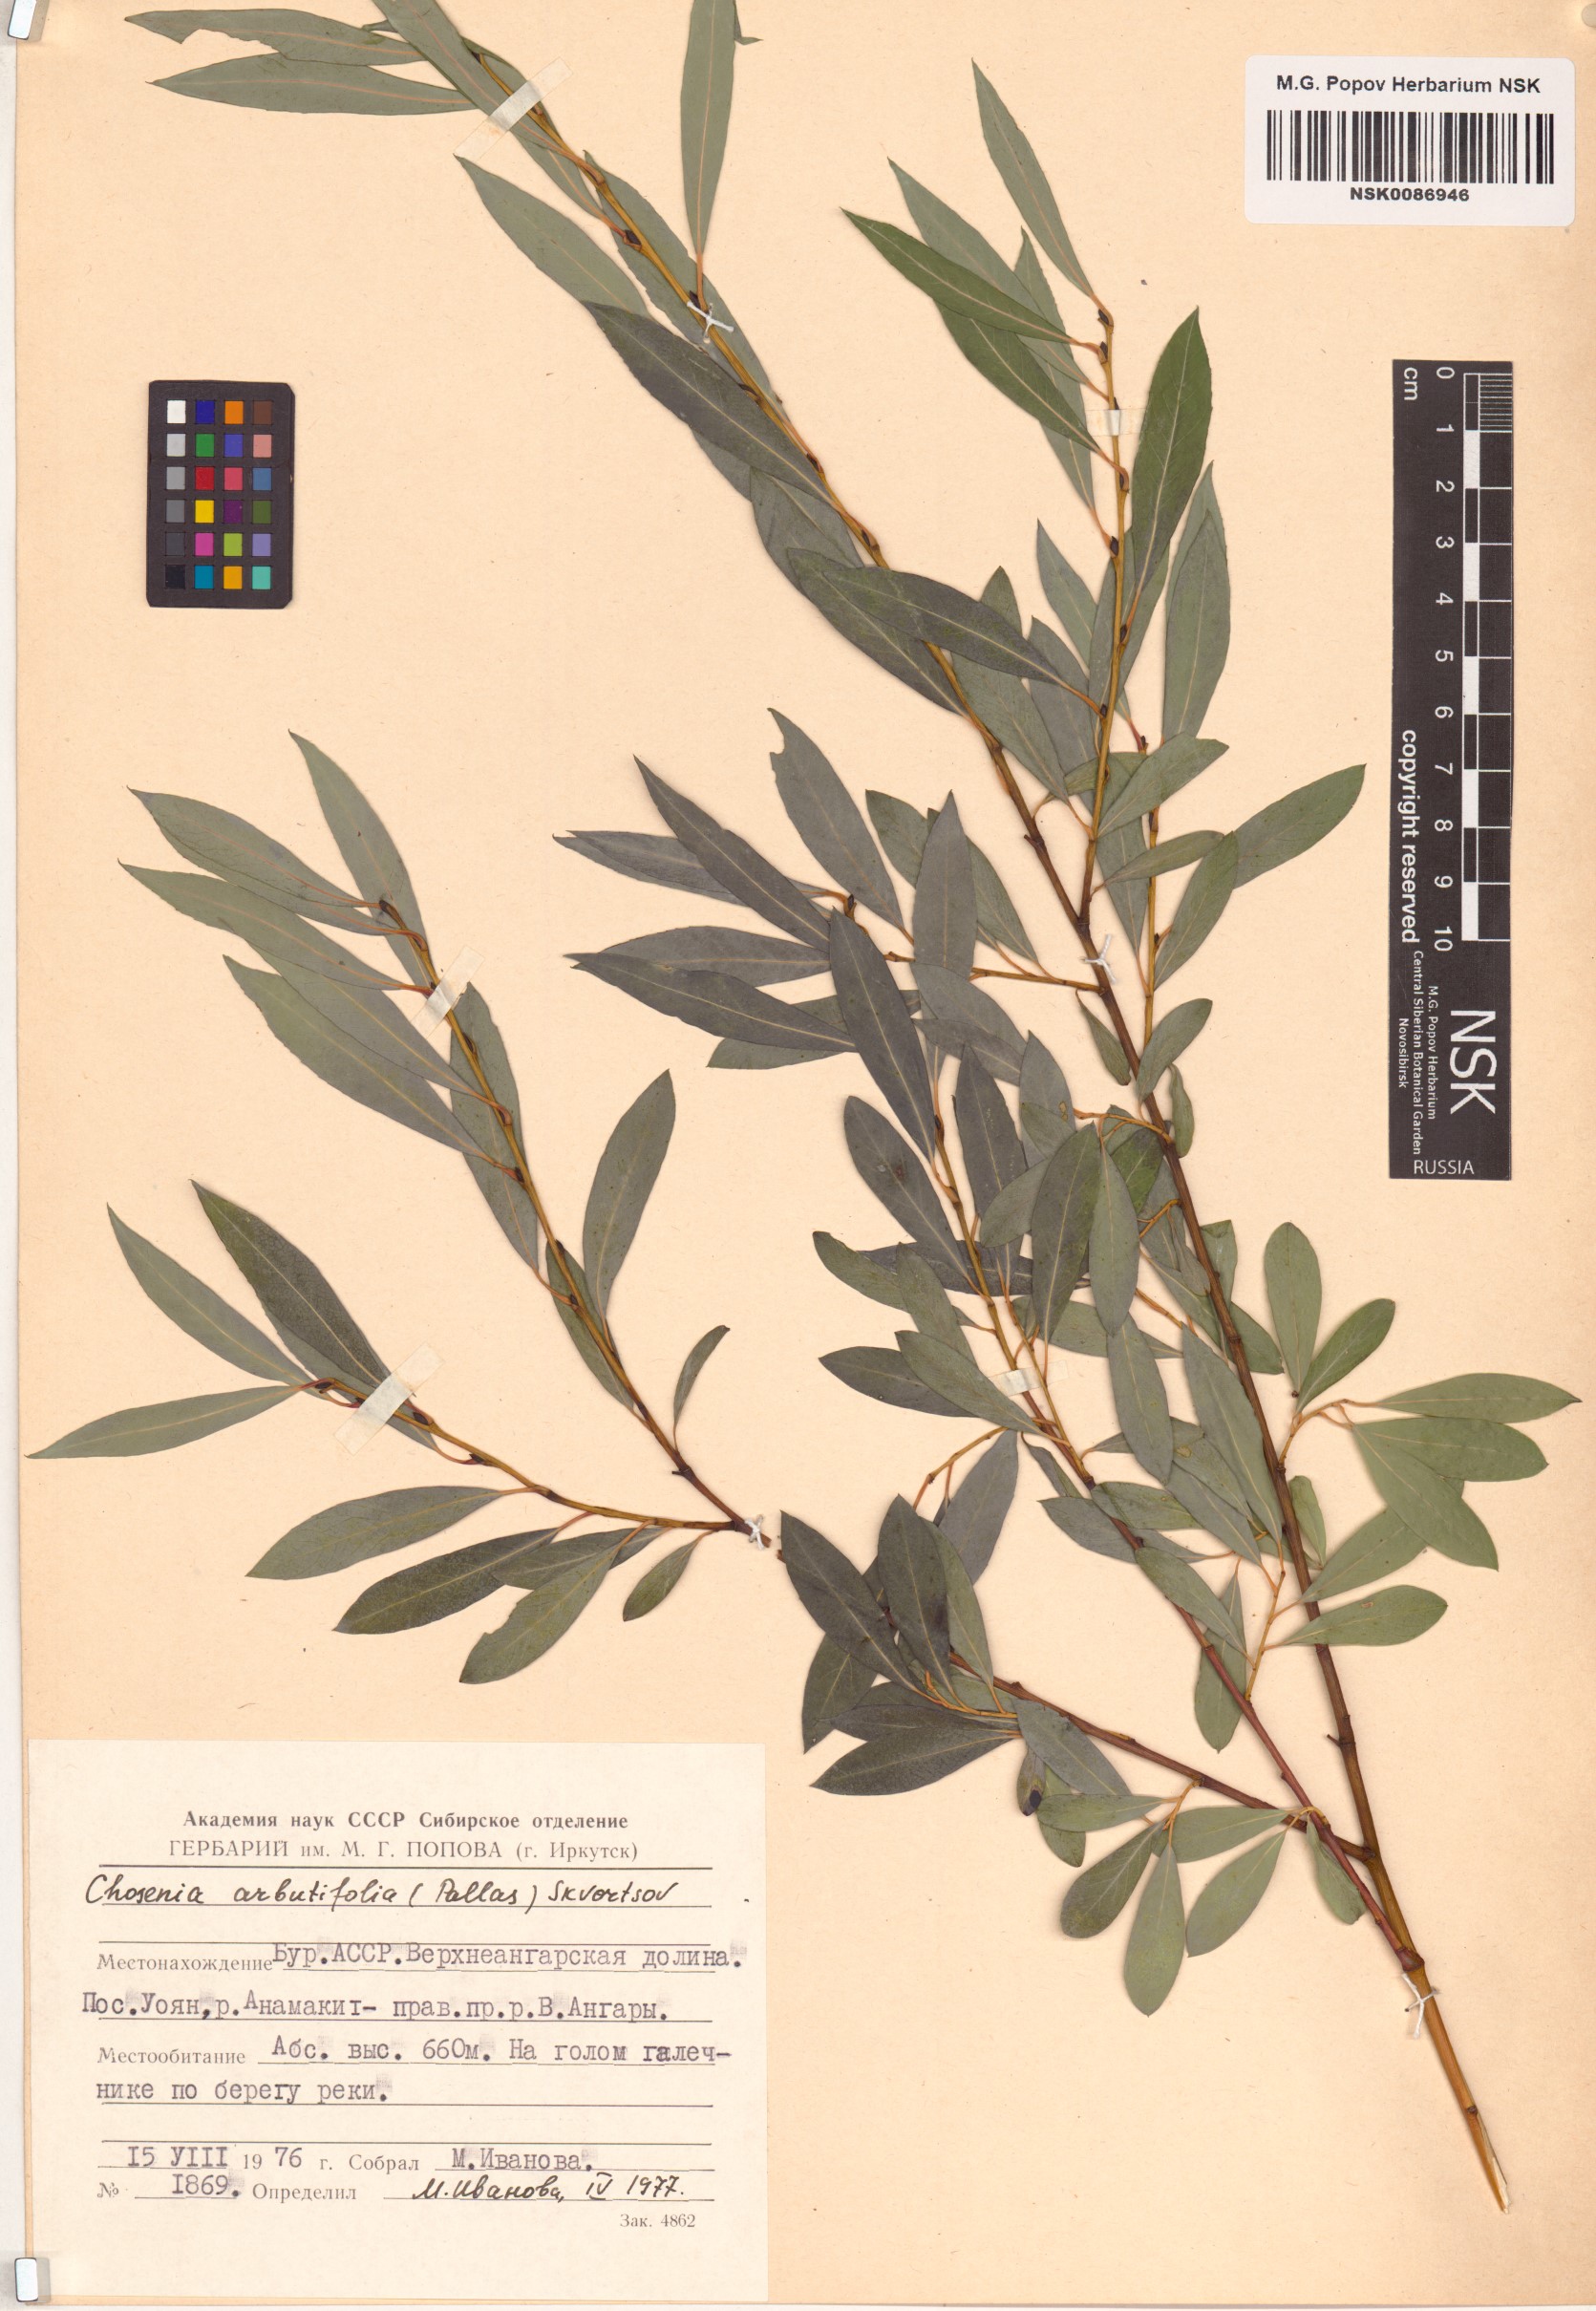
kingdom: Plantae
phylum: Tracheophyta
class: Magnoliopsida
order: Malpighiales
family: Salicaceae
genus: Chosenia
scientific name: Chosenia arbutifolia
